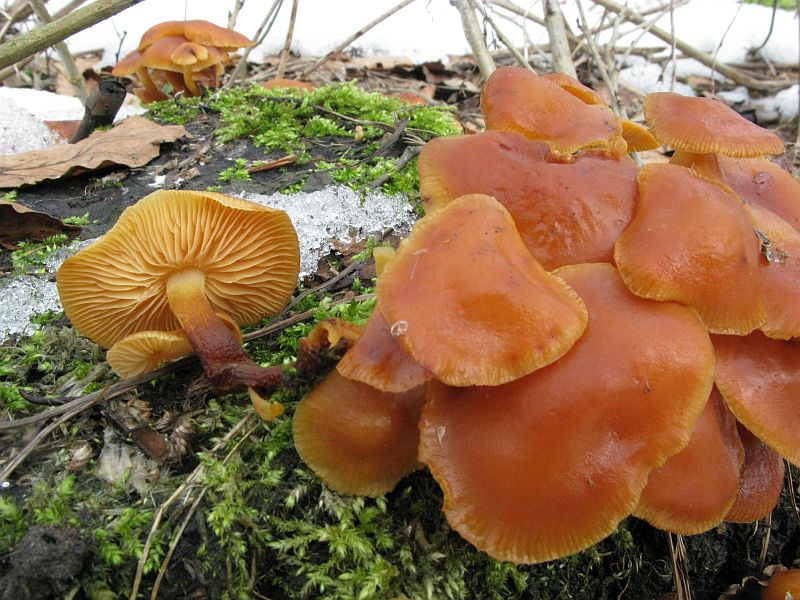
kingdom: Fungi
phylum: Basidiomycota
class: Agaricomycetes
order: Agaricales
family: Physalacriaceae
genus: Flammulina
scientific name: Flammulina velutipes
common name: gul fløjlsfod
